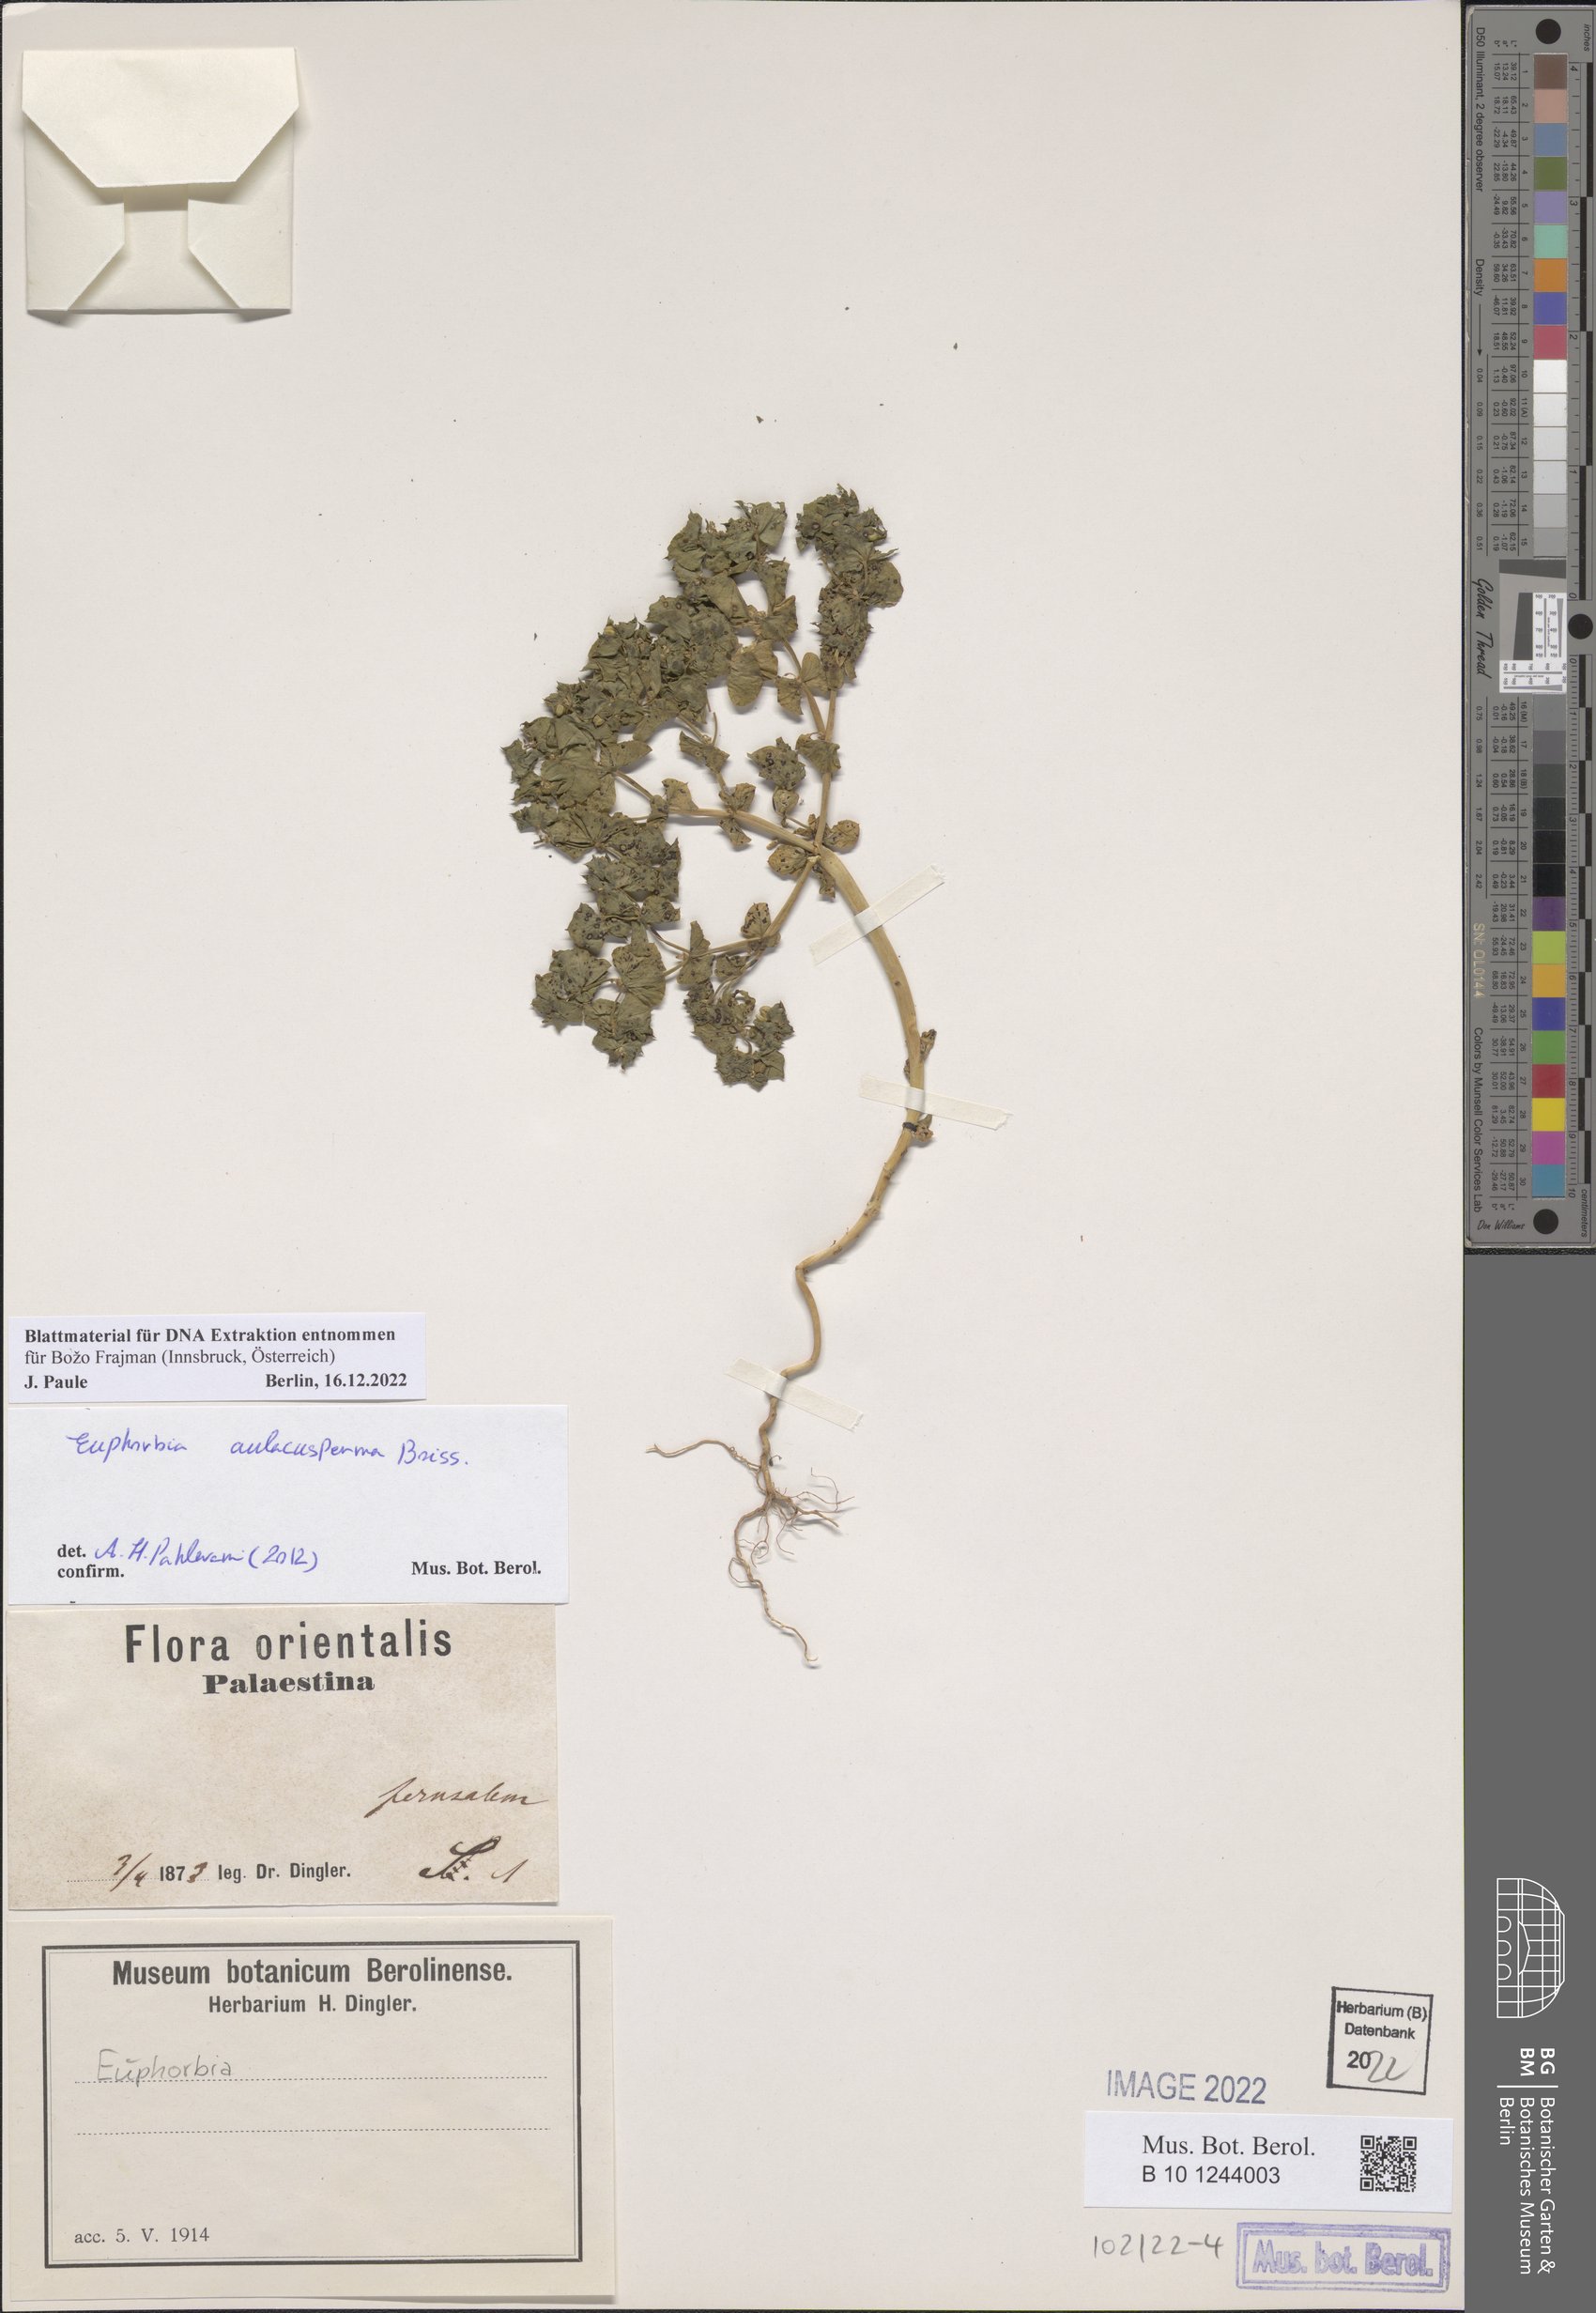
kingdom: Plantae
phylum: Tracheophyta
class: Magnoliopsida
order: Malpighiales
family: Euphorbiaceae
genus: Euphorbia
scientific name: Euphorbia aulacosperma
